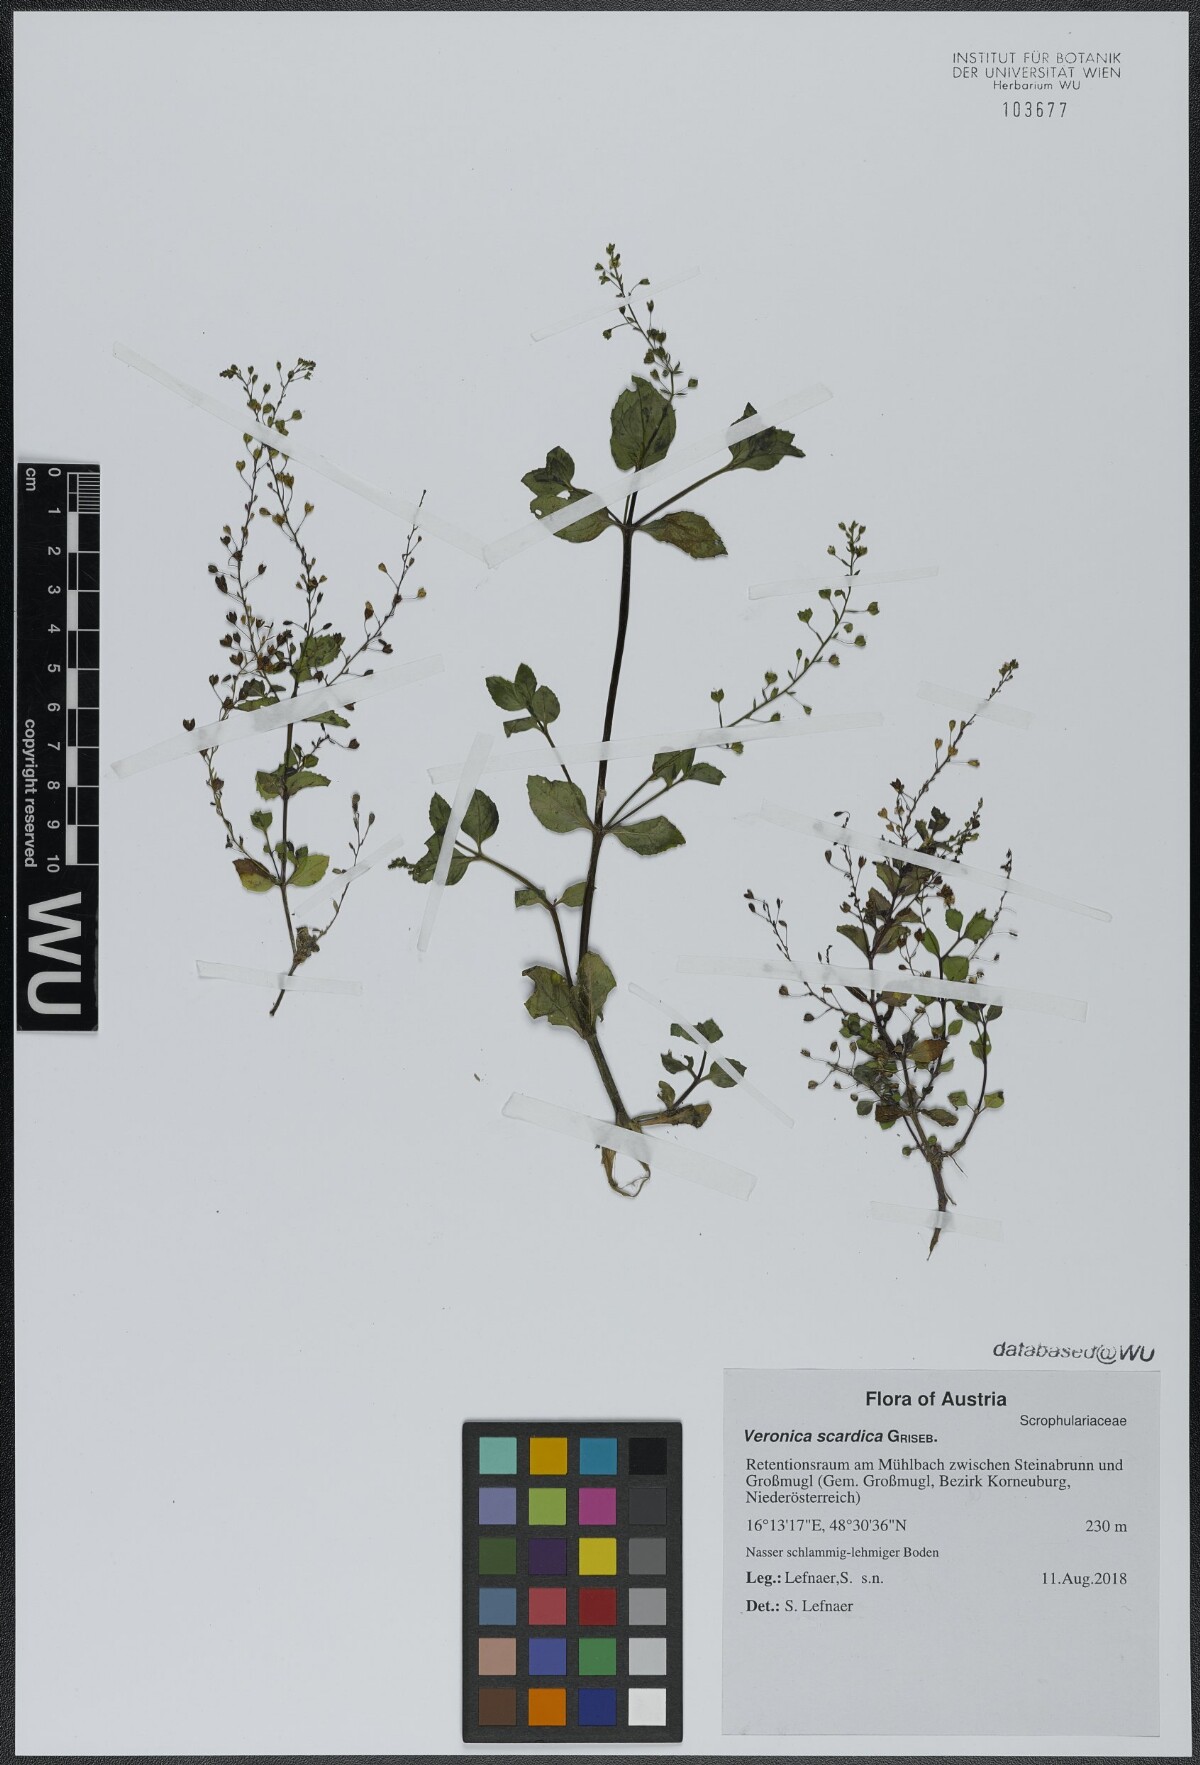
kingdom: Plantae
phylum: Tracheophyta
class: Magnoliopsida
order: Lamiales
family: Plantaginaceae
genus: Veronica
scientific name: Veronica scardica
